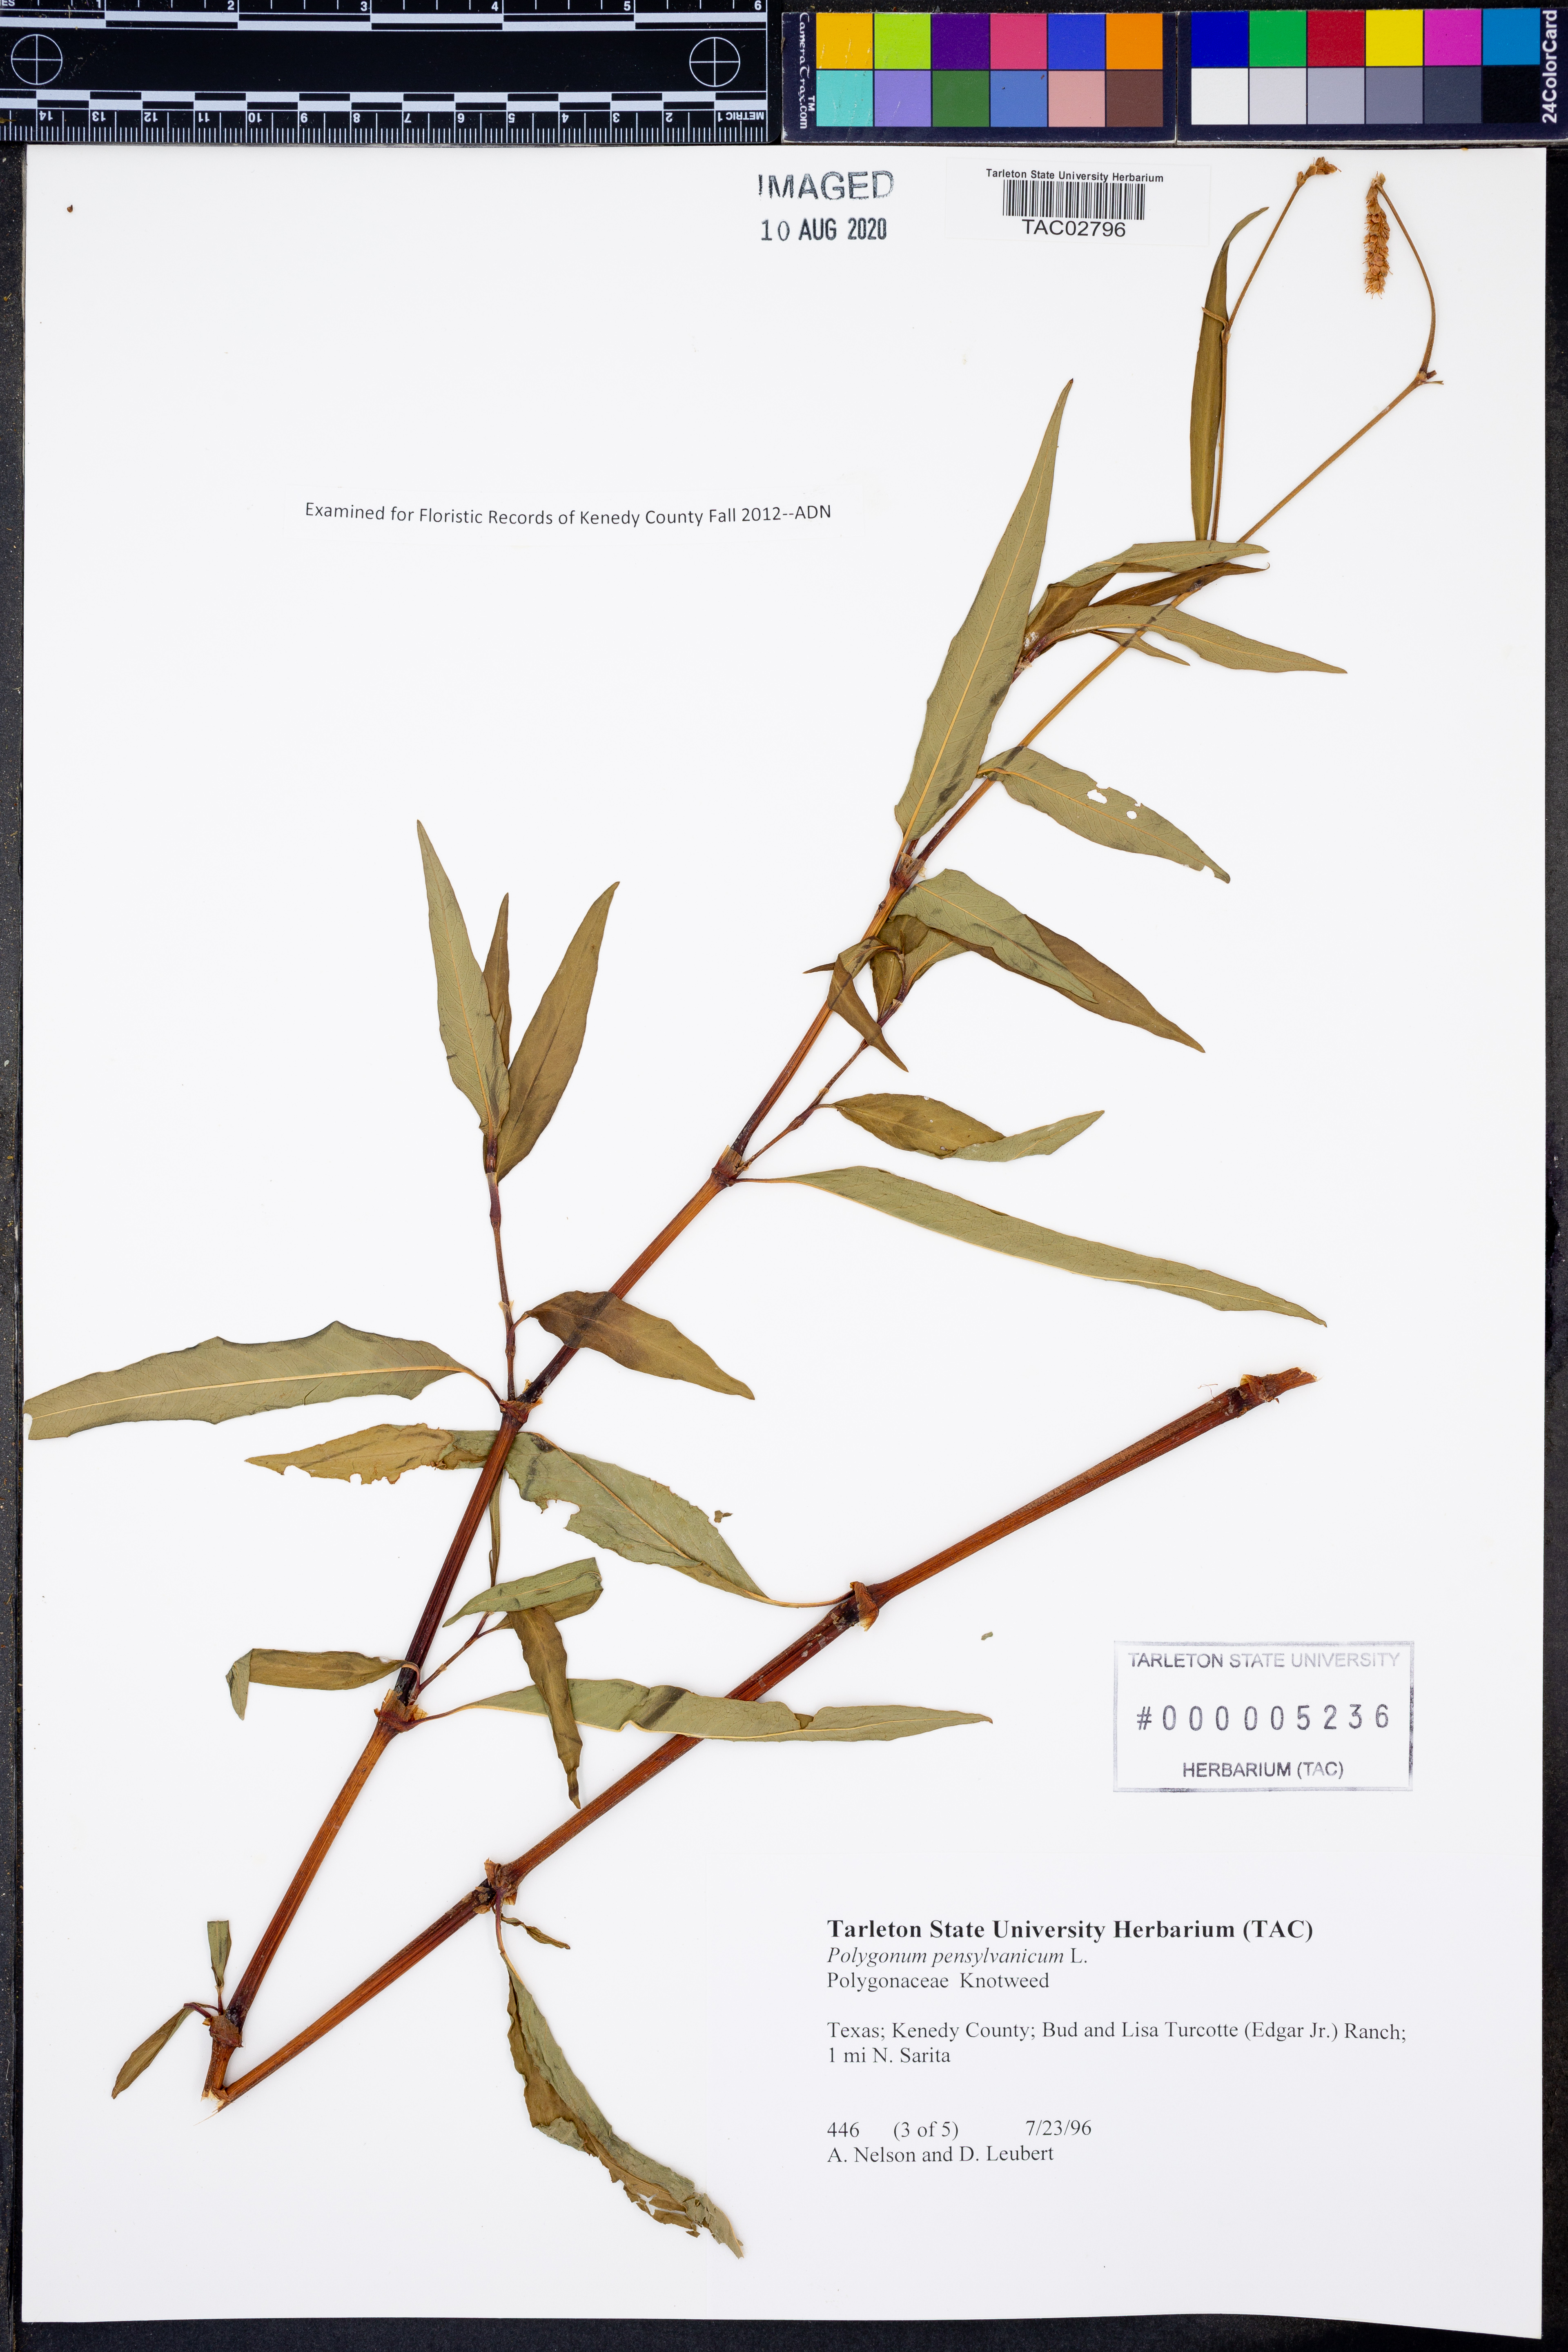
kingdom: Plantae
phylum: Tracheophyta
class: Magnoliopsida
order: Caryophyllales
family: Polygonaceae
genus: Persicaria
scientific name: Persicaria pensylvanica
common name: Pinkweed
